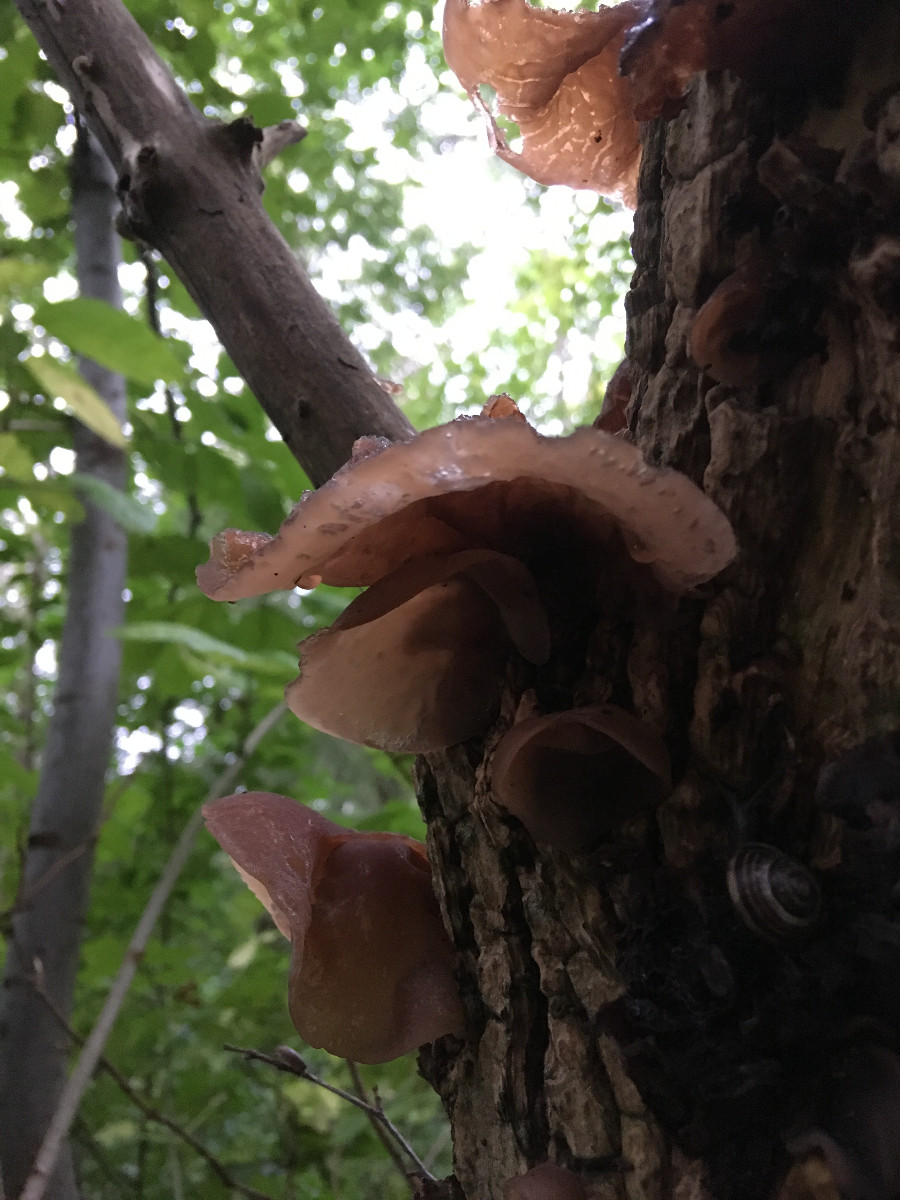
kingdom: Fungi
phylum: Basidiomycota
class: Agaricomycetes
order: Auriculariales
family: Auriculariaceae
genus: Auricularia
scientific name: Auricularia auricula-judae
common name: almindelig judasøre
